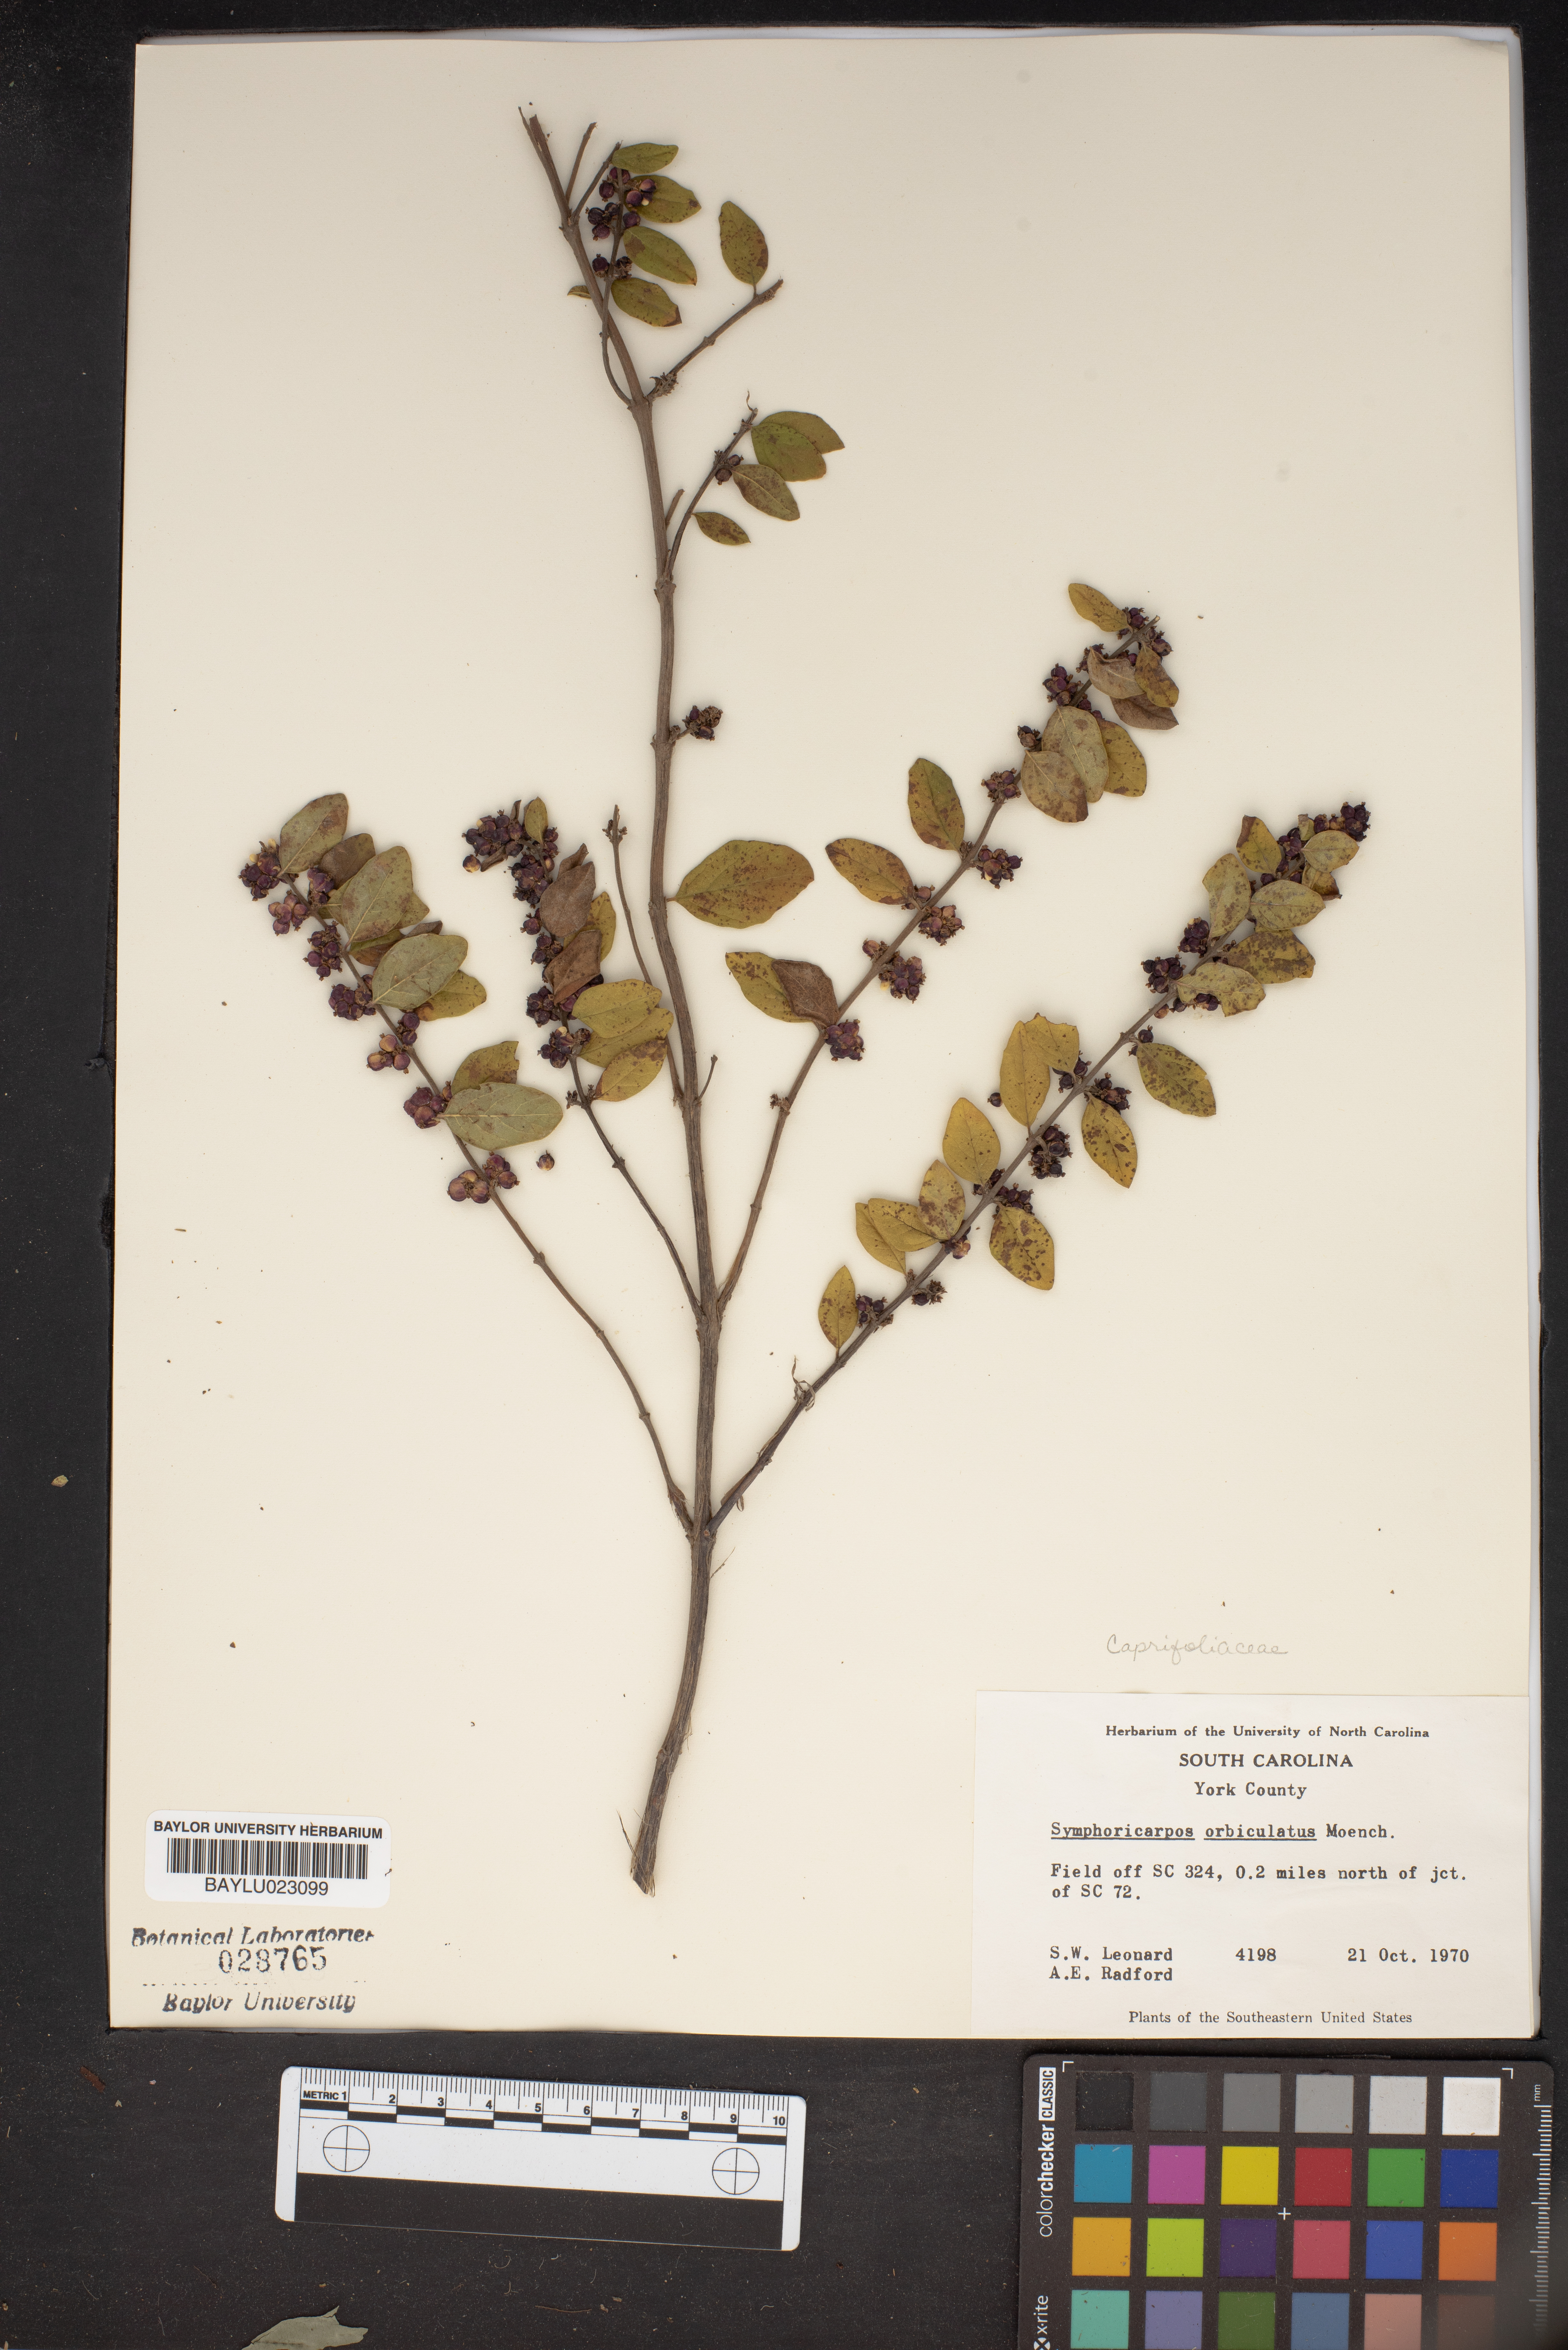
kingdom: Plantae
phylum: Tracheophyta
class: Magnoliopsida
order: Dipsacales
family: Caprifoliaceae
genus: Symphoricarpos
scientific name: Symphoricarpos orbiculatus
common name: Coralberry
